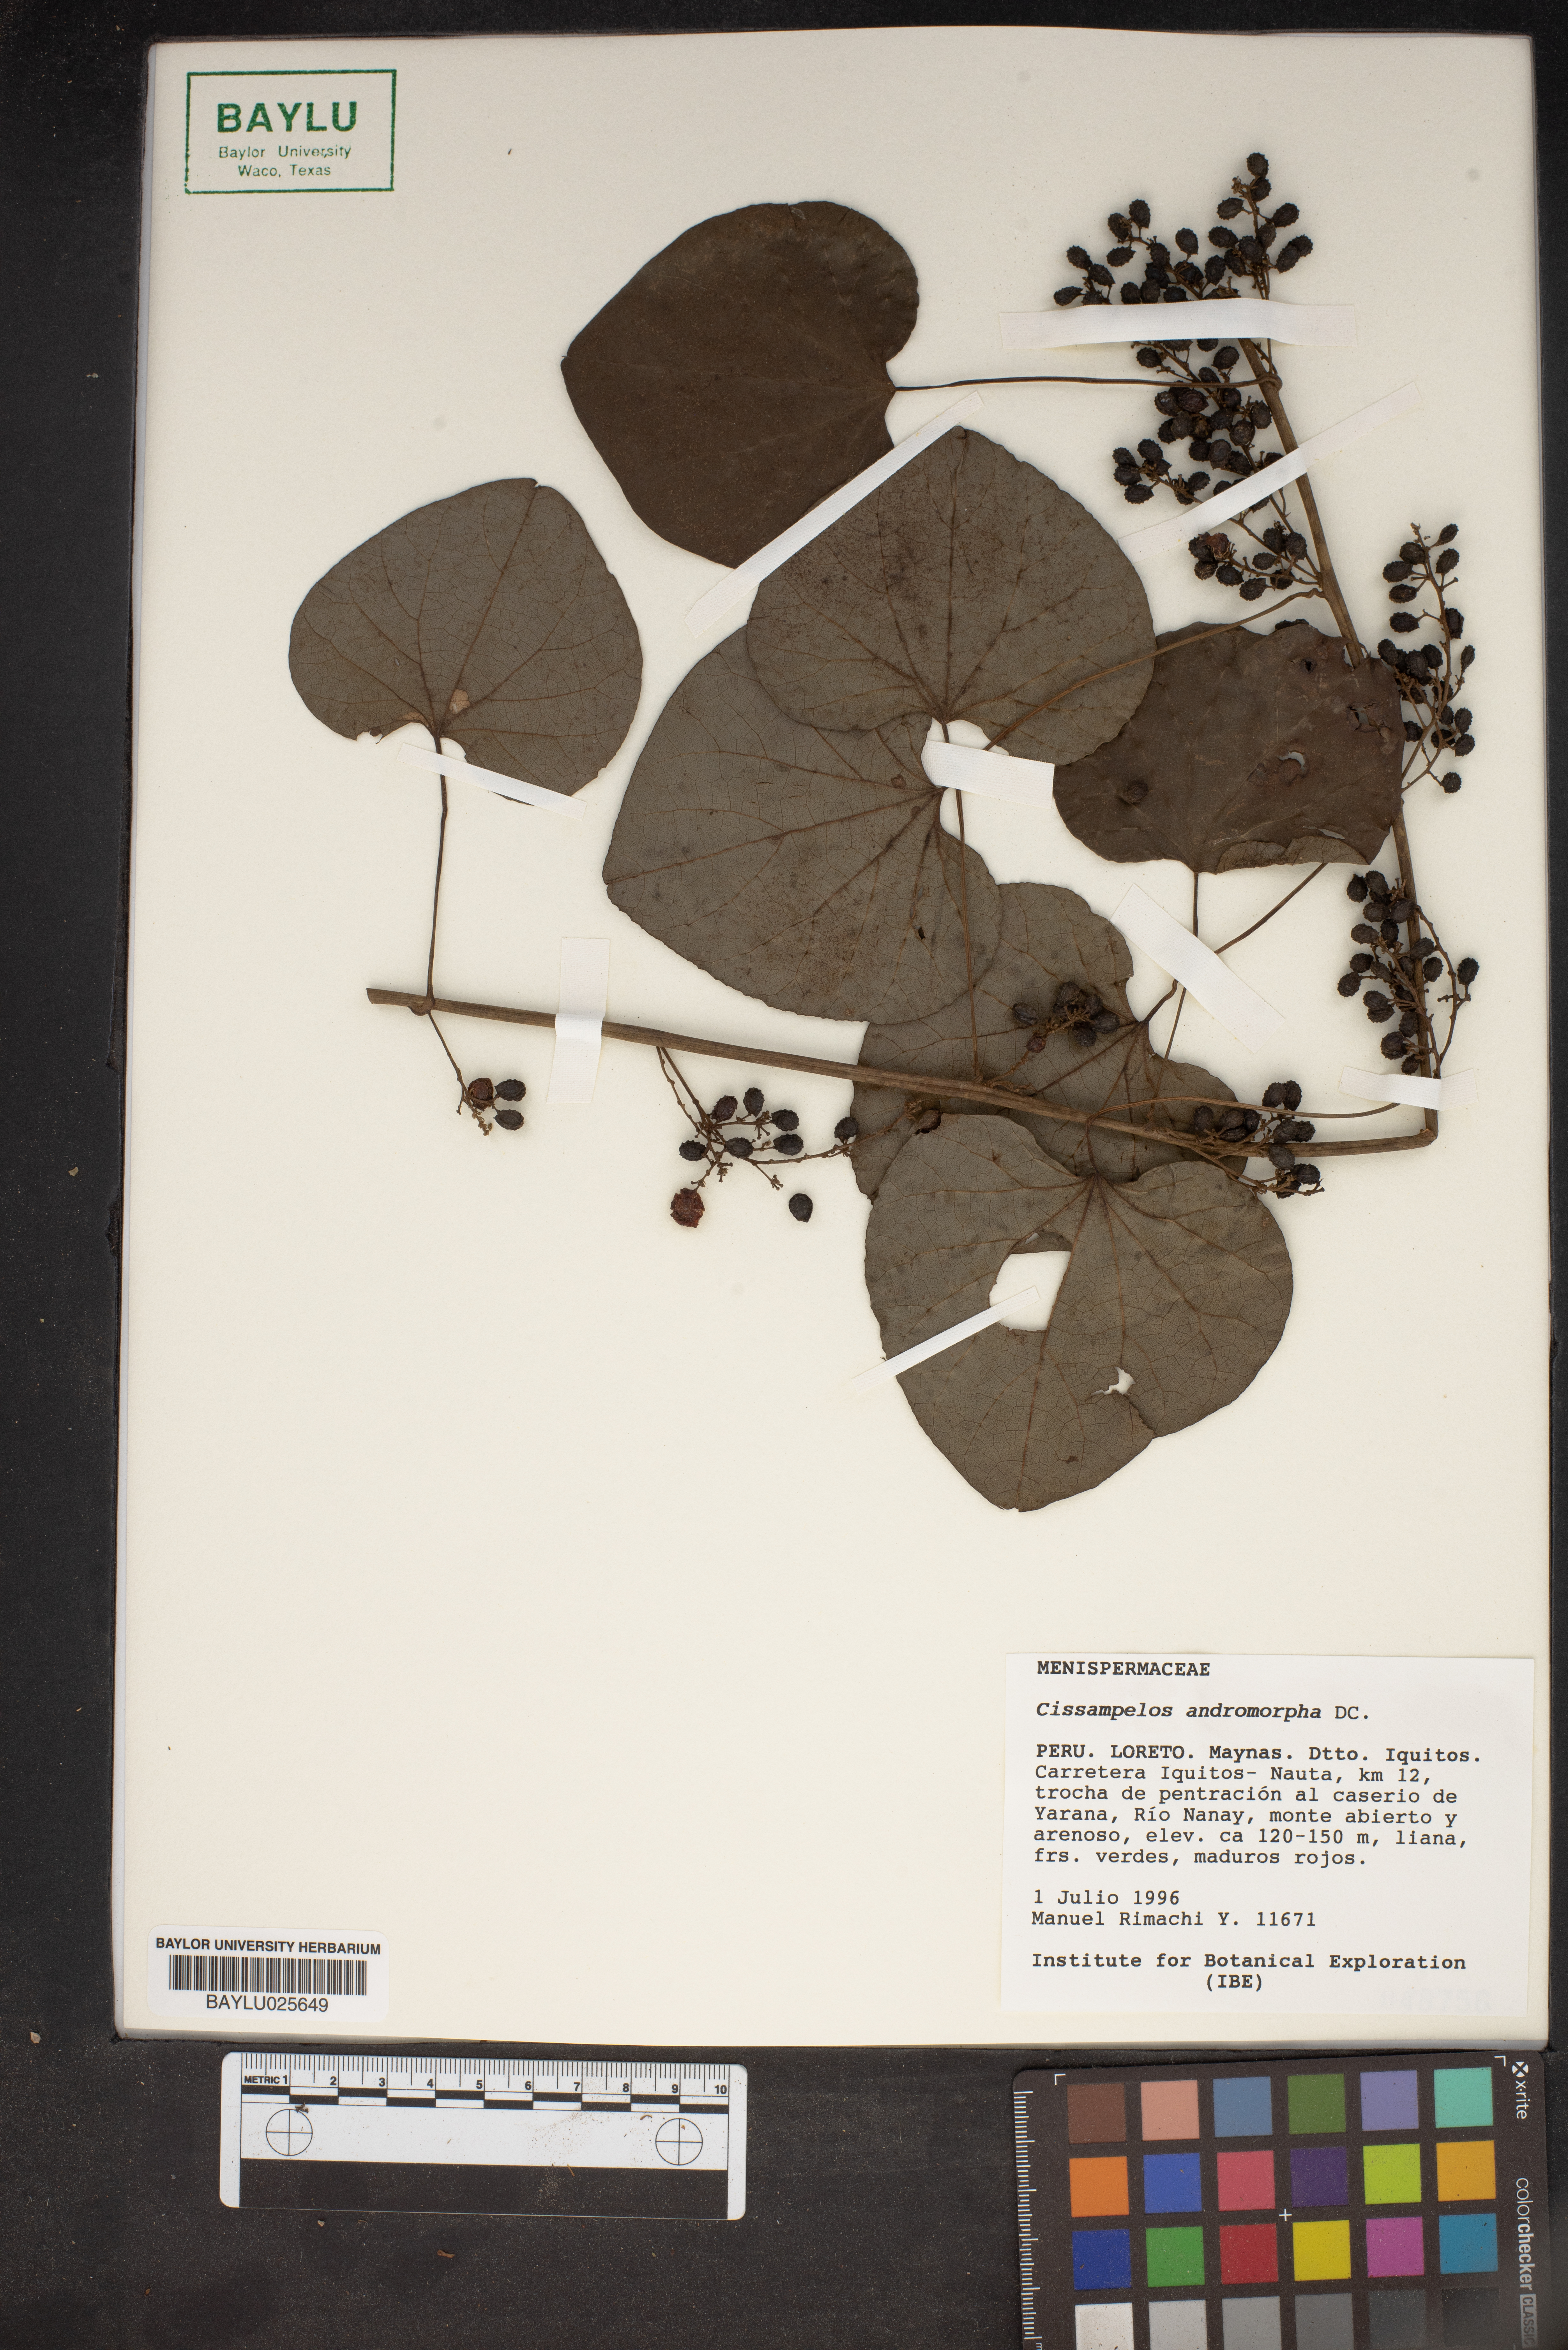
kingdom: Plantae
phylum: Tracheophyta
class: Magnoliopsida
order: Ranunculales
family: Menispermaceae
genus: Cissampelos
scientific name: Cissampelos andromorpha
